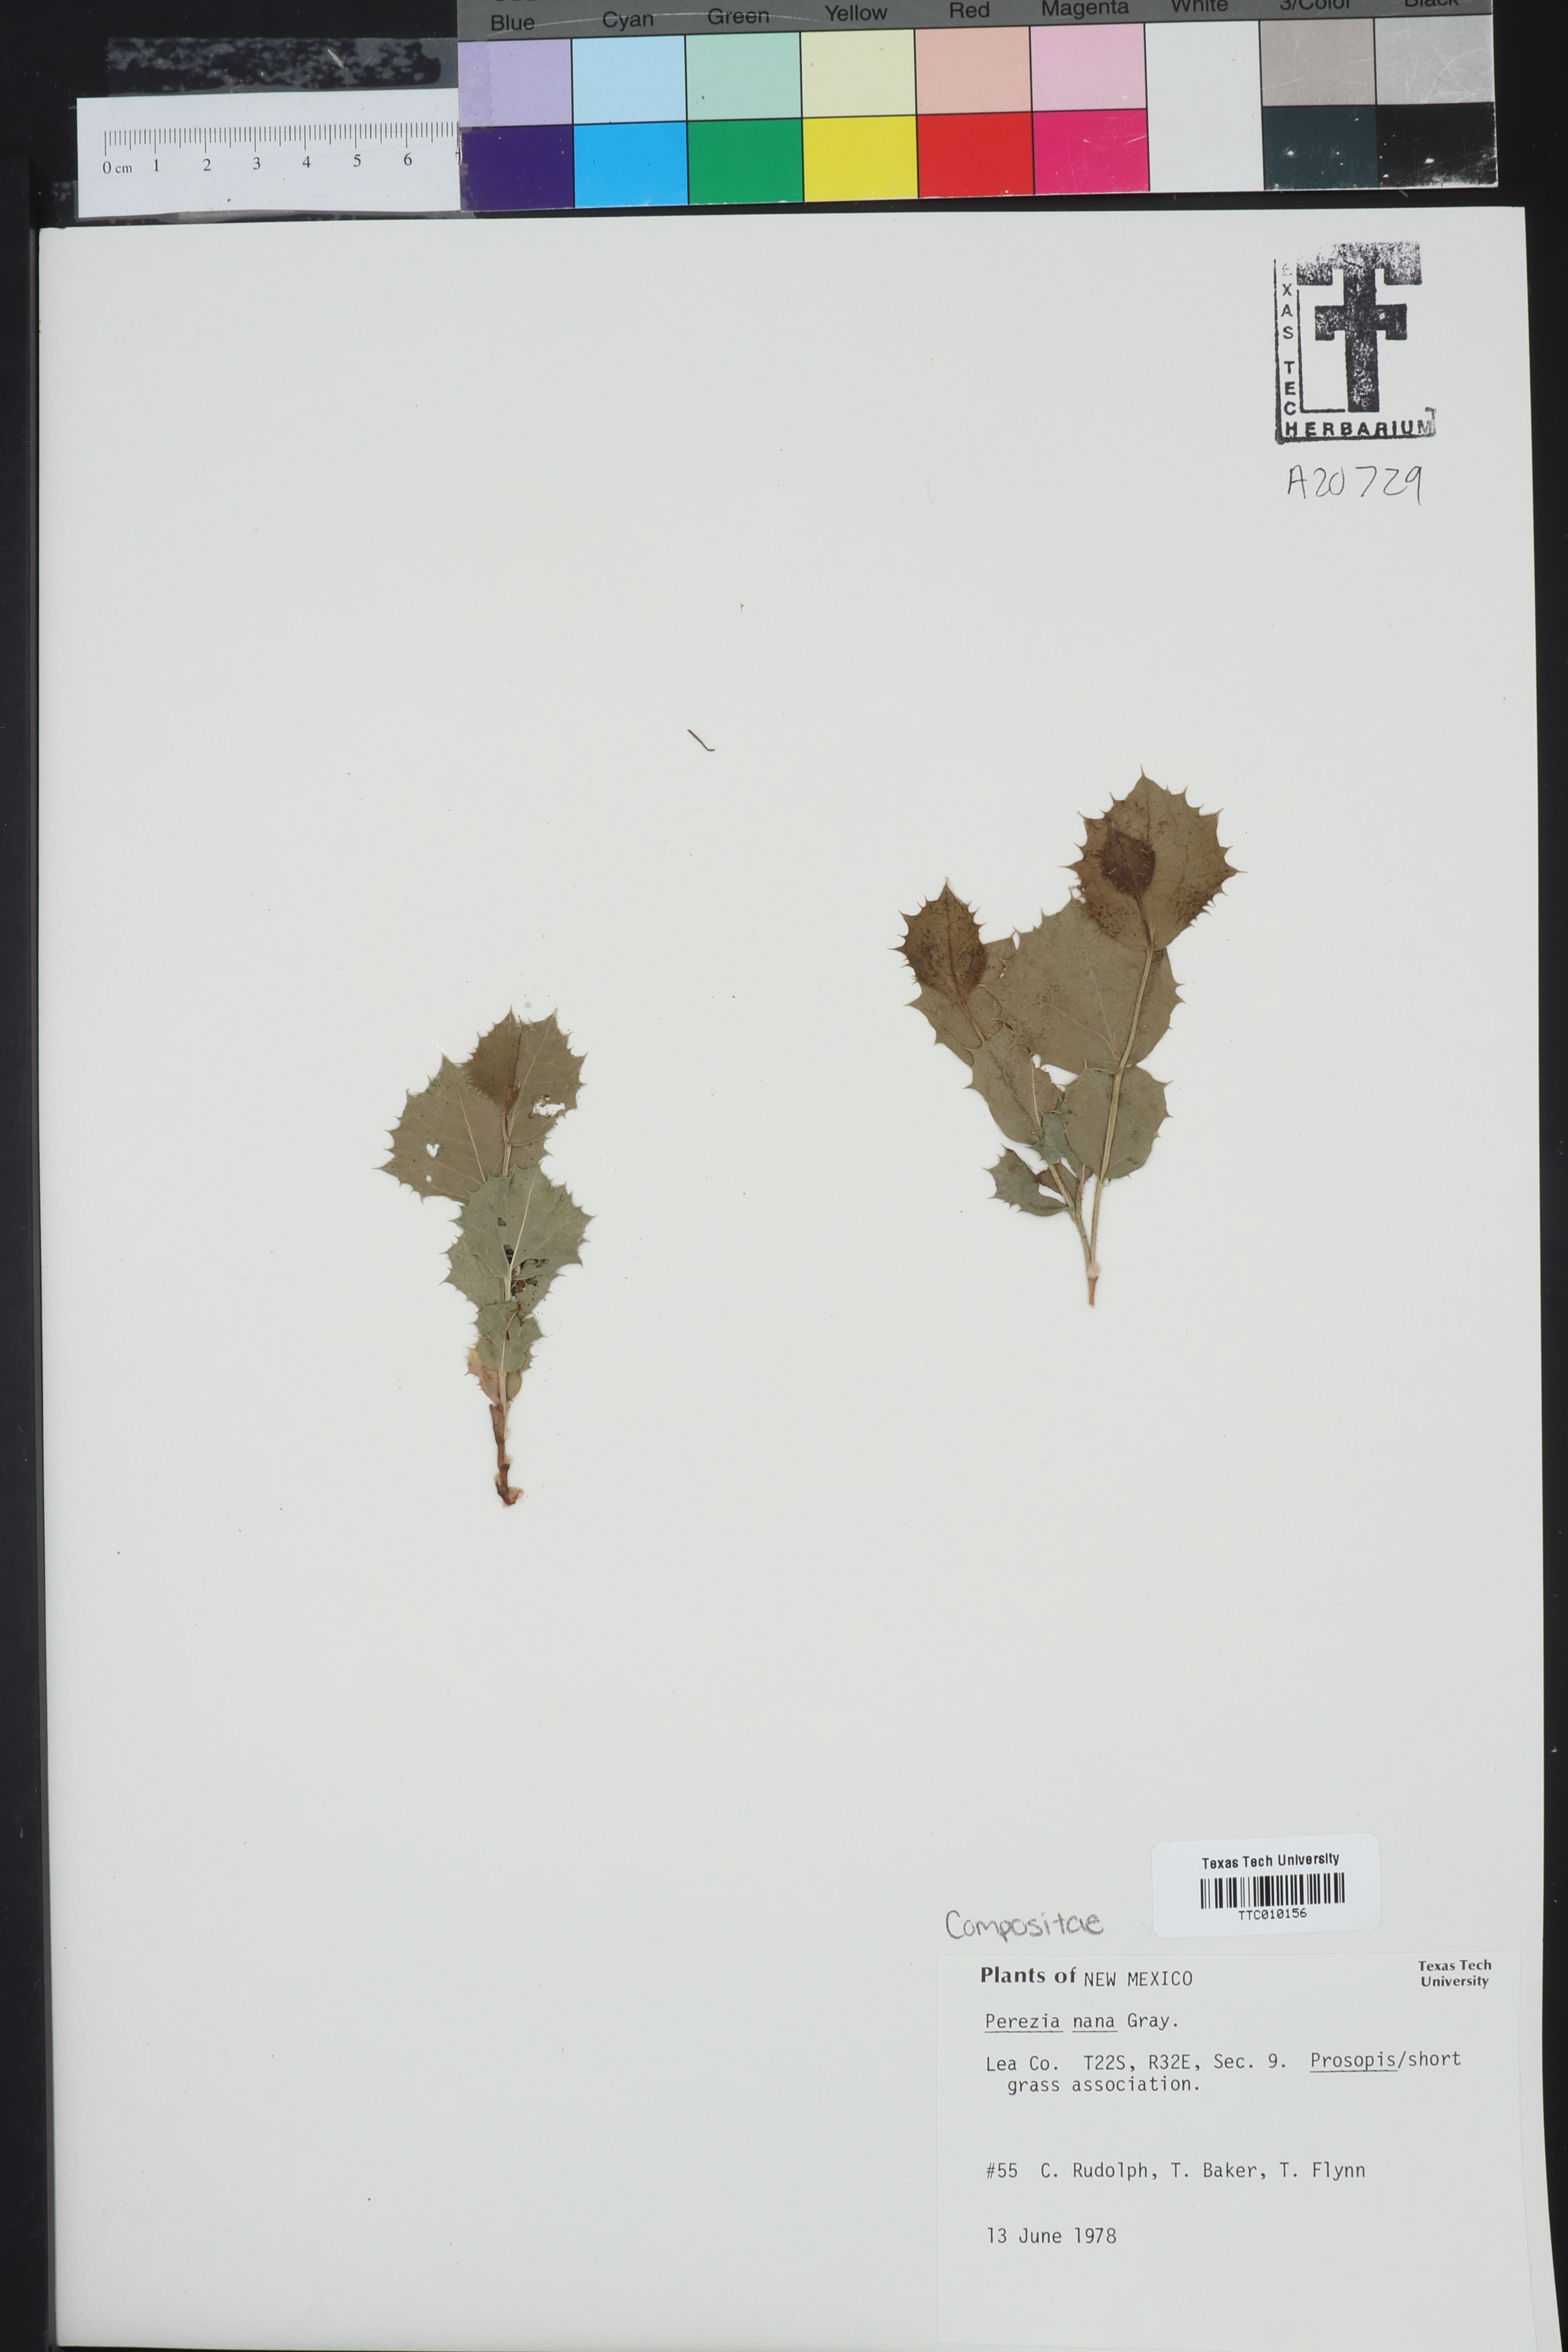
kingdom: Plantae
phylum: Tracheophyta
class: Magnoliopsida
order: Asterales
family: Asteraceae
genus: Acourtia
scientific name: Acourtia nana
